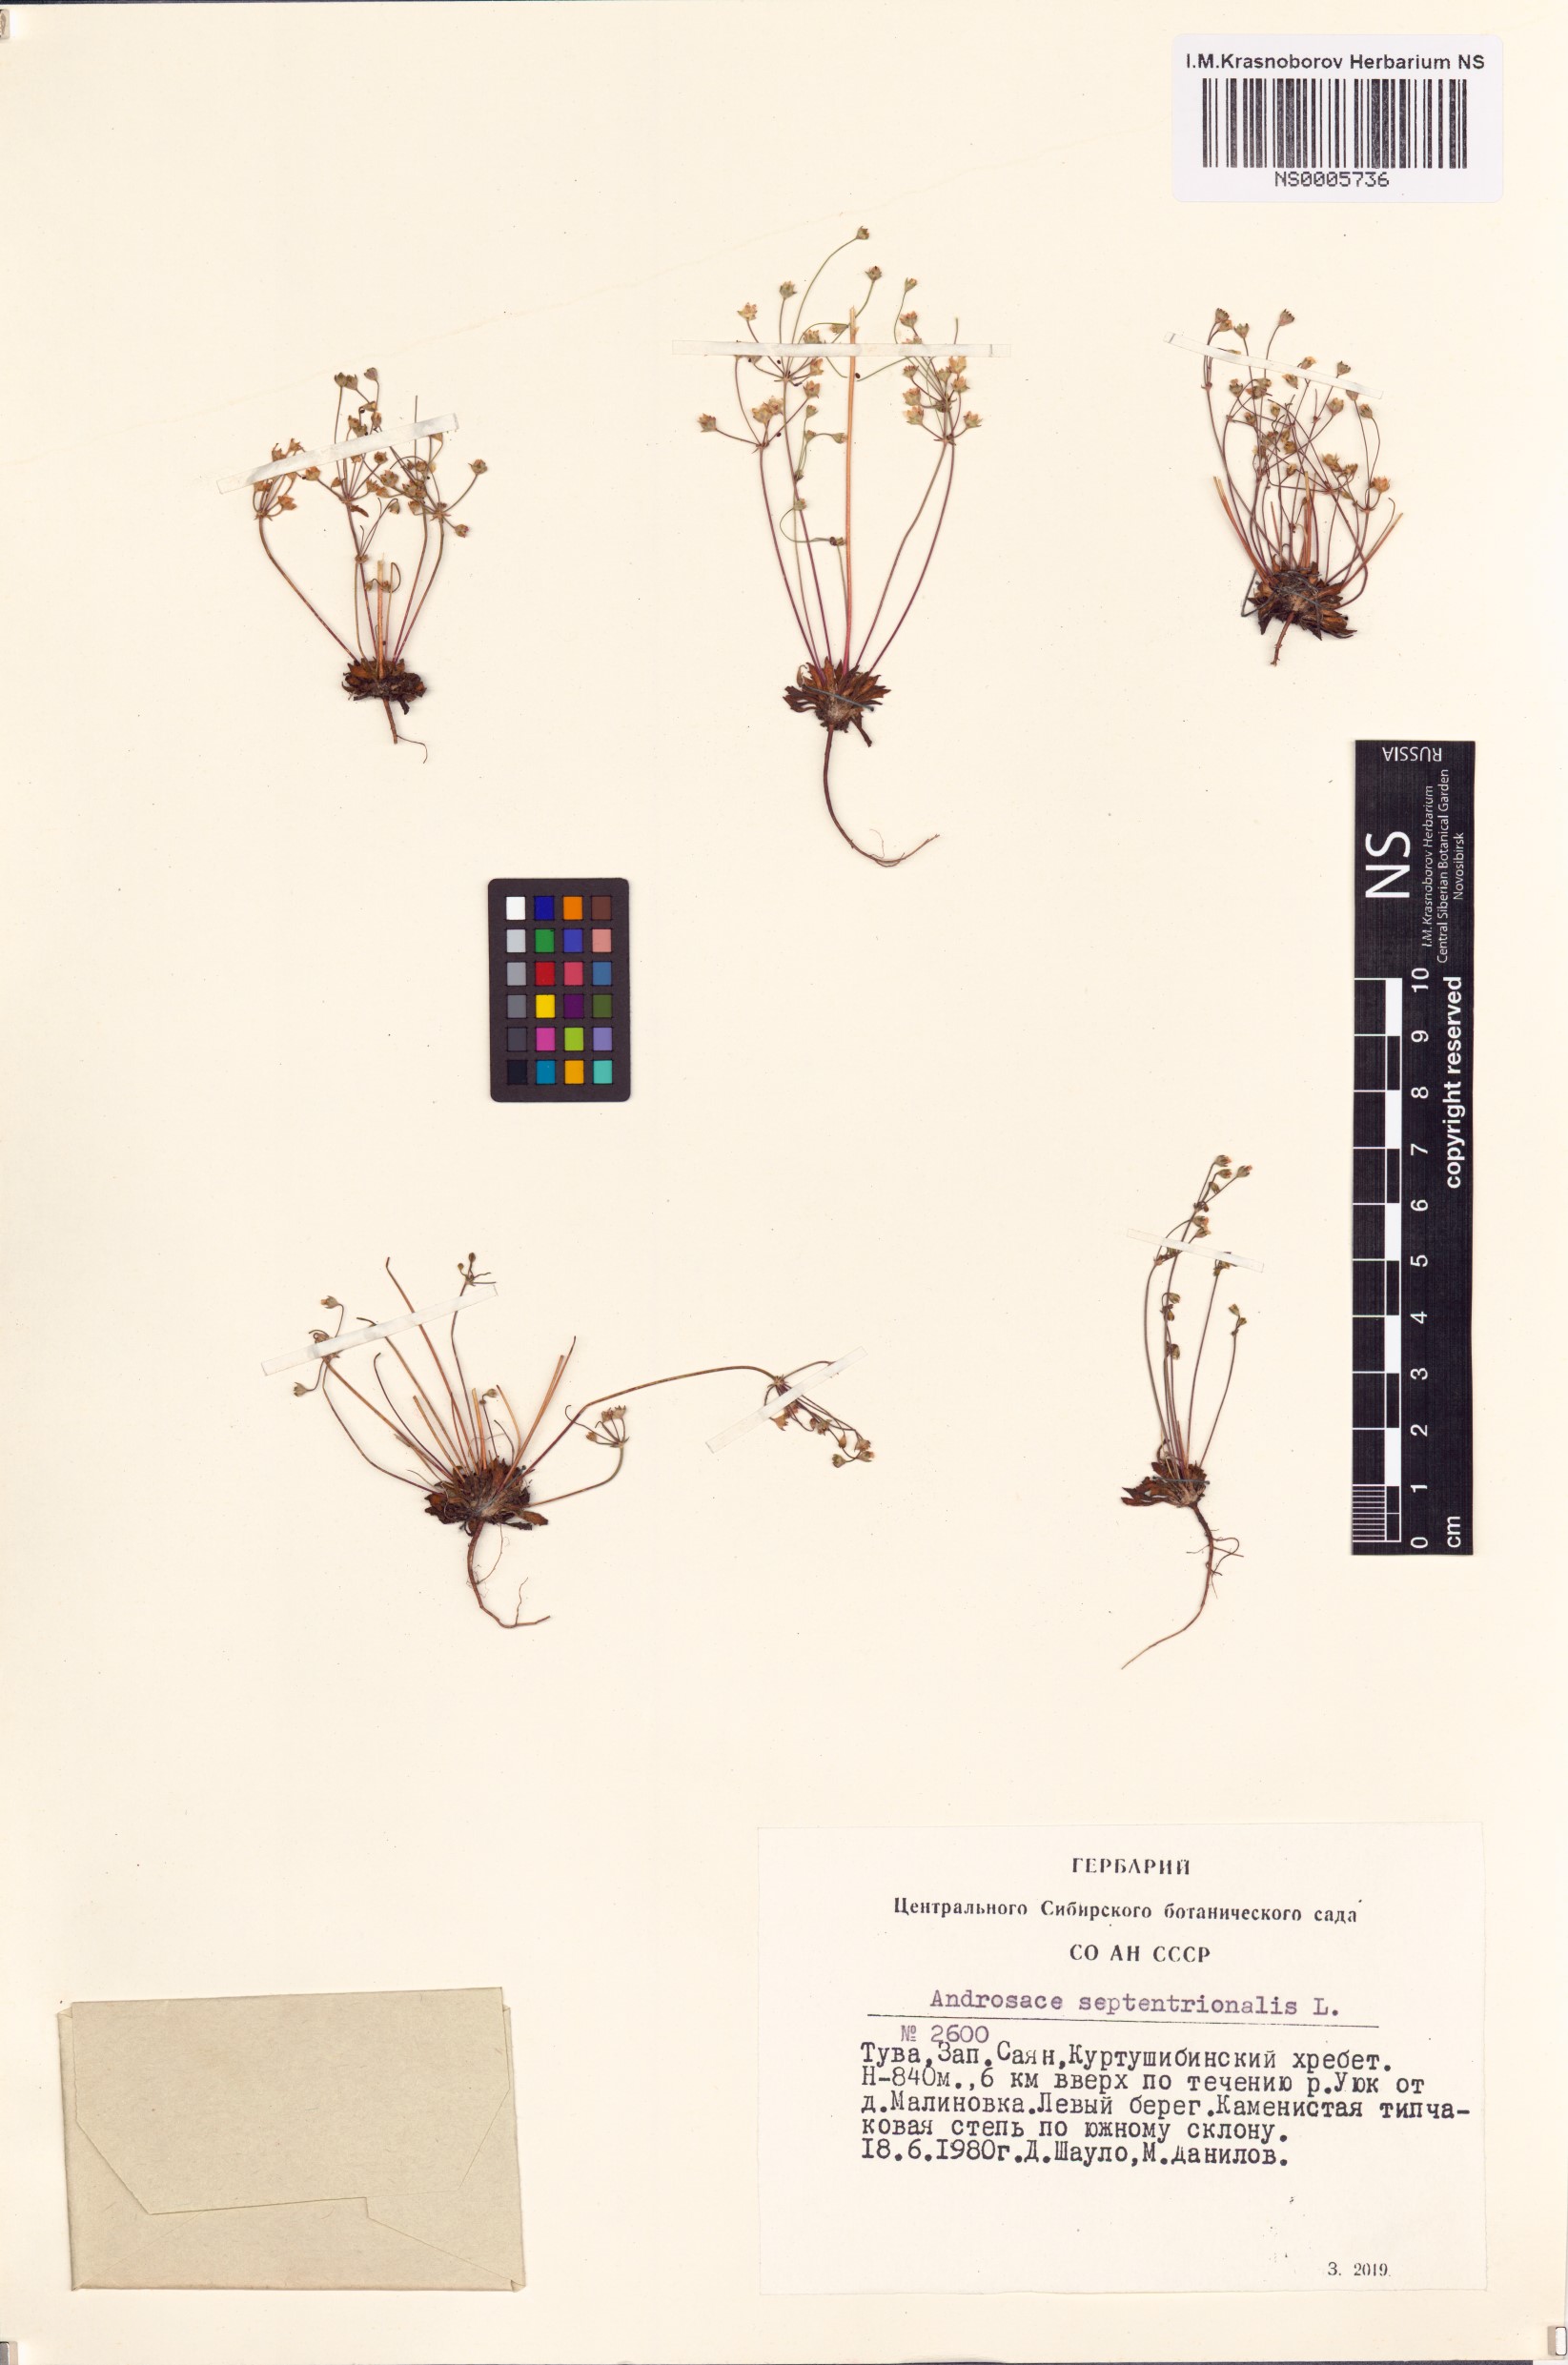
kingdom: Plantae
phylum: Tracheophyta
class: Magnoliopsida
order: Ericales
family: Primulaceae
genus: Androsace
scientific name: Androsace septentrionalis
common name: Hairy northern fairy-candelabra
